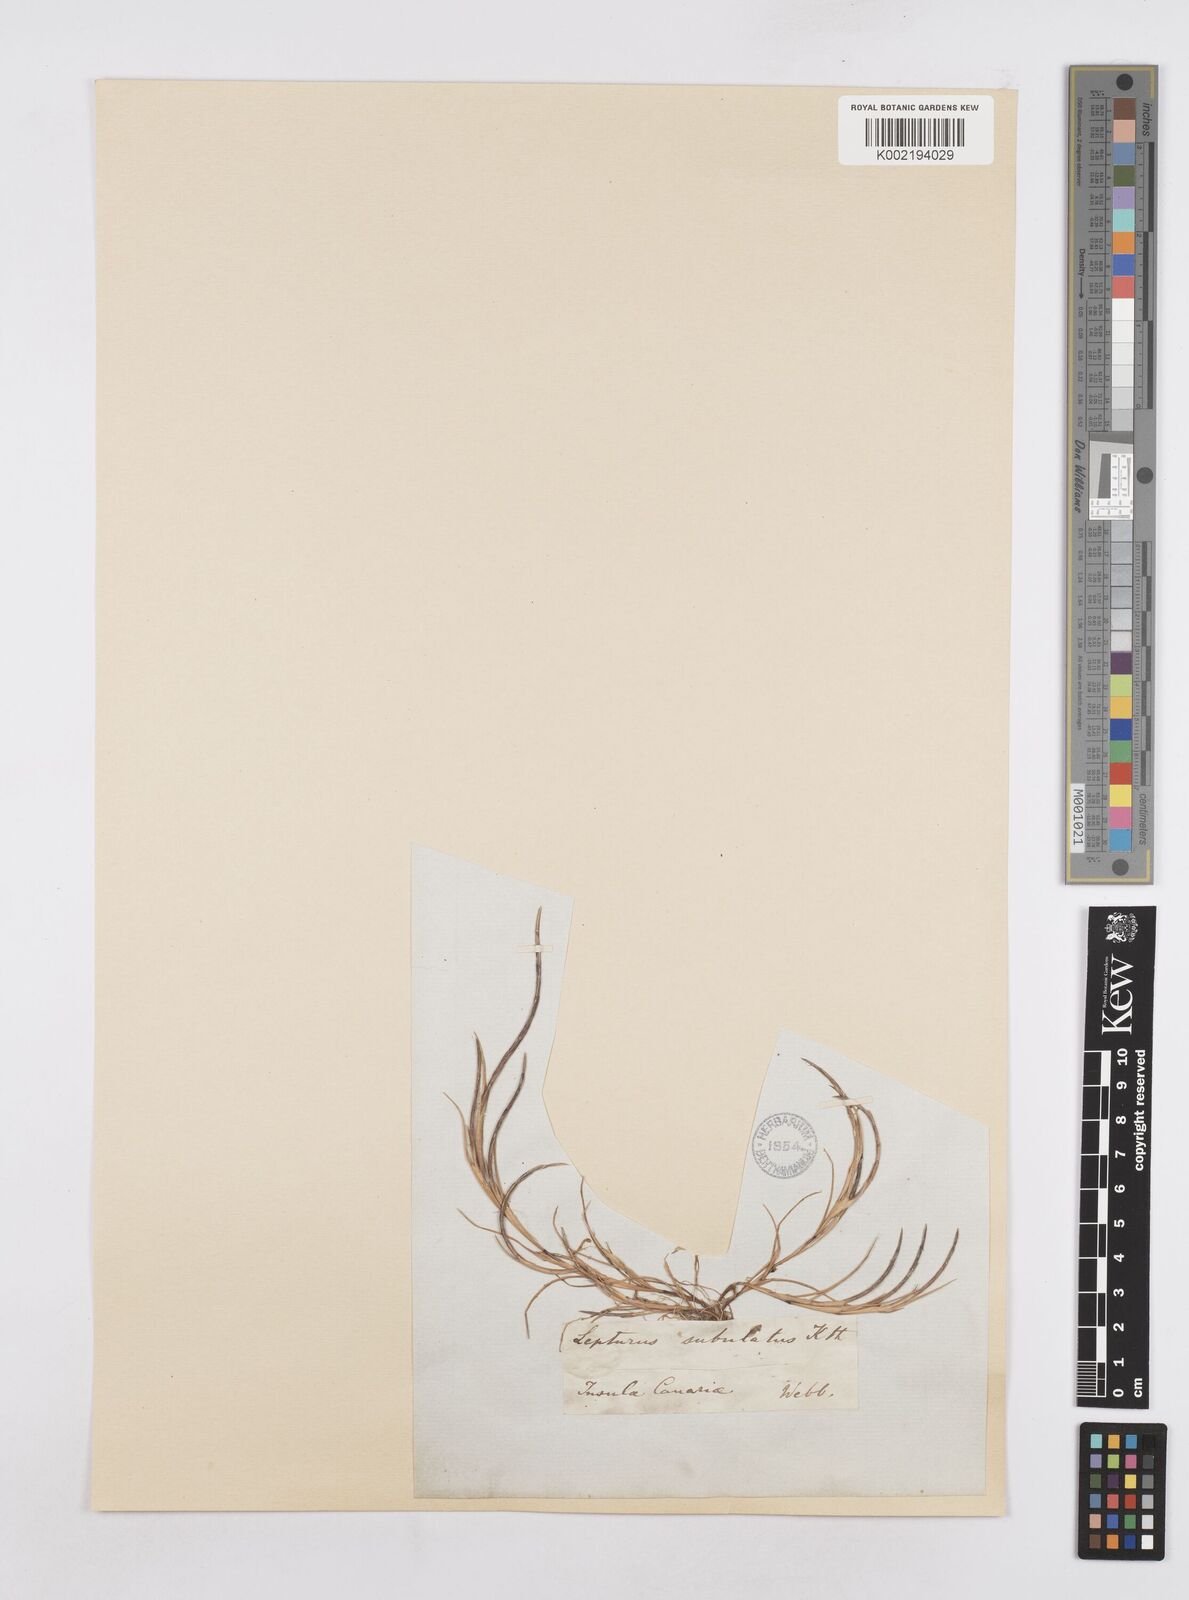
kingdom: Plantae
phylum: Tracheophyta
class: Liliopsida
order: Poales
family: Poaceae
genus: Parapholis
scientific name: Parapholis incurva
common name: Curved sicklegrass
